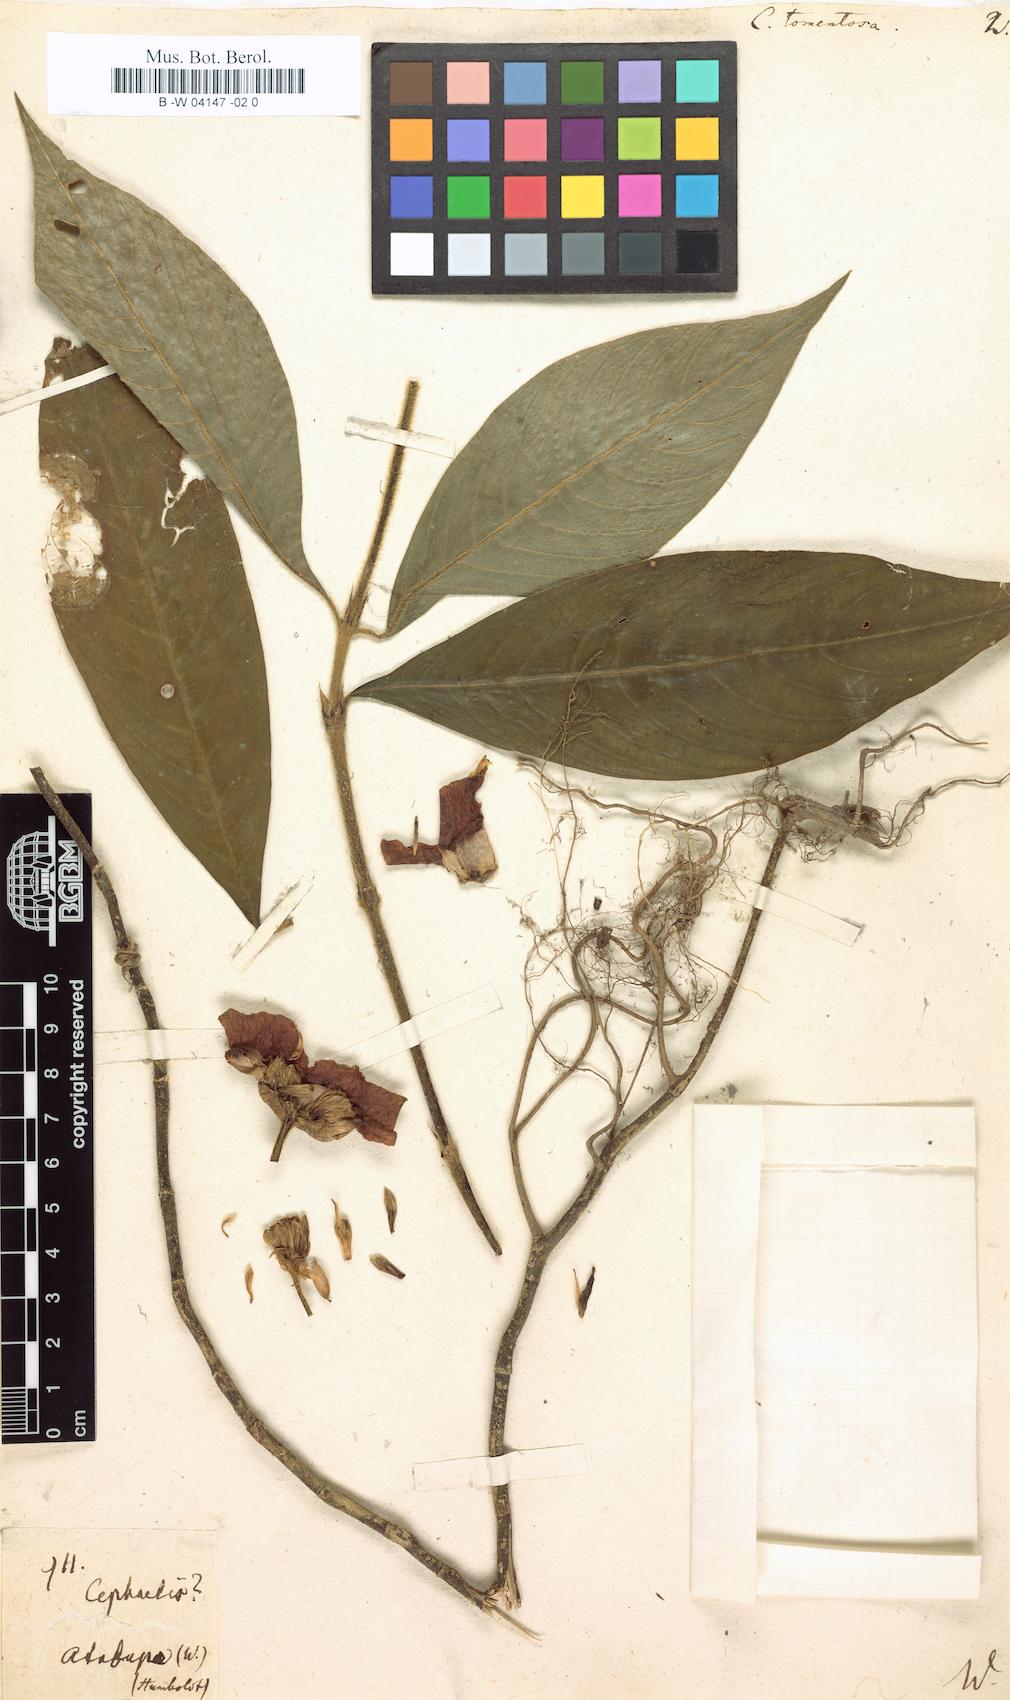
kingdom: Plantae
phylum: Tracheophyta
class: Magnoliopsida
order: Gentianales
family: Rubiaceae
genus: Palicourea
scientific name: Palicourea tomentosa
